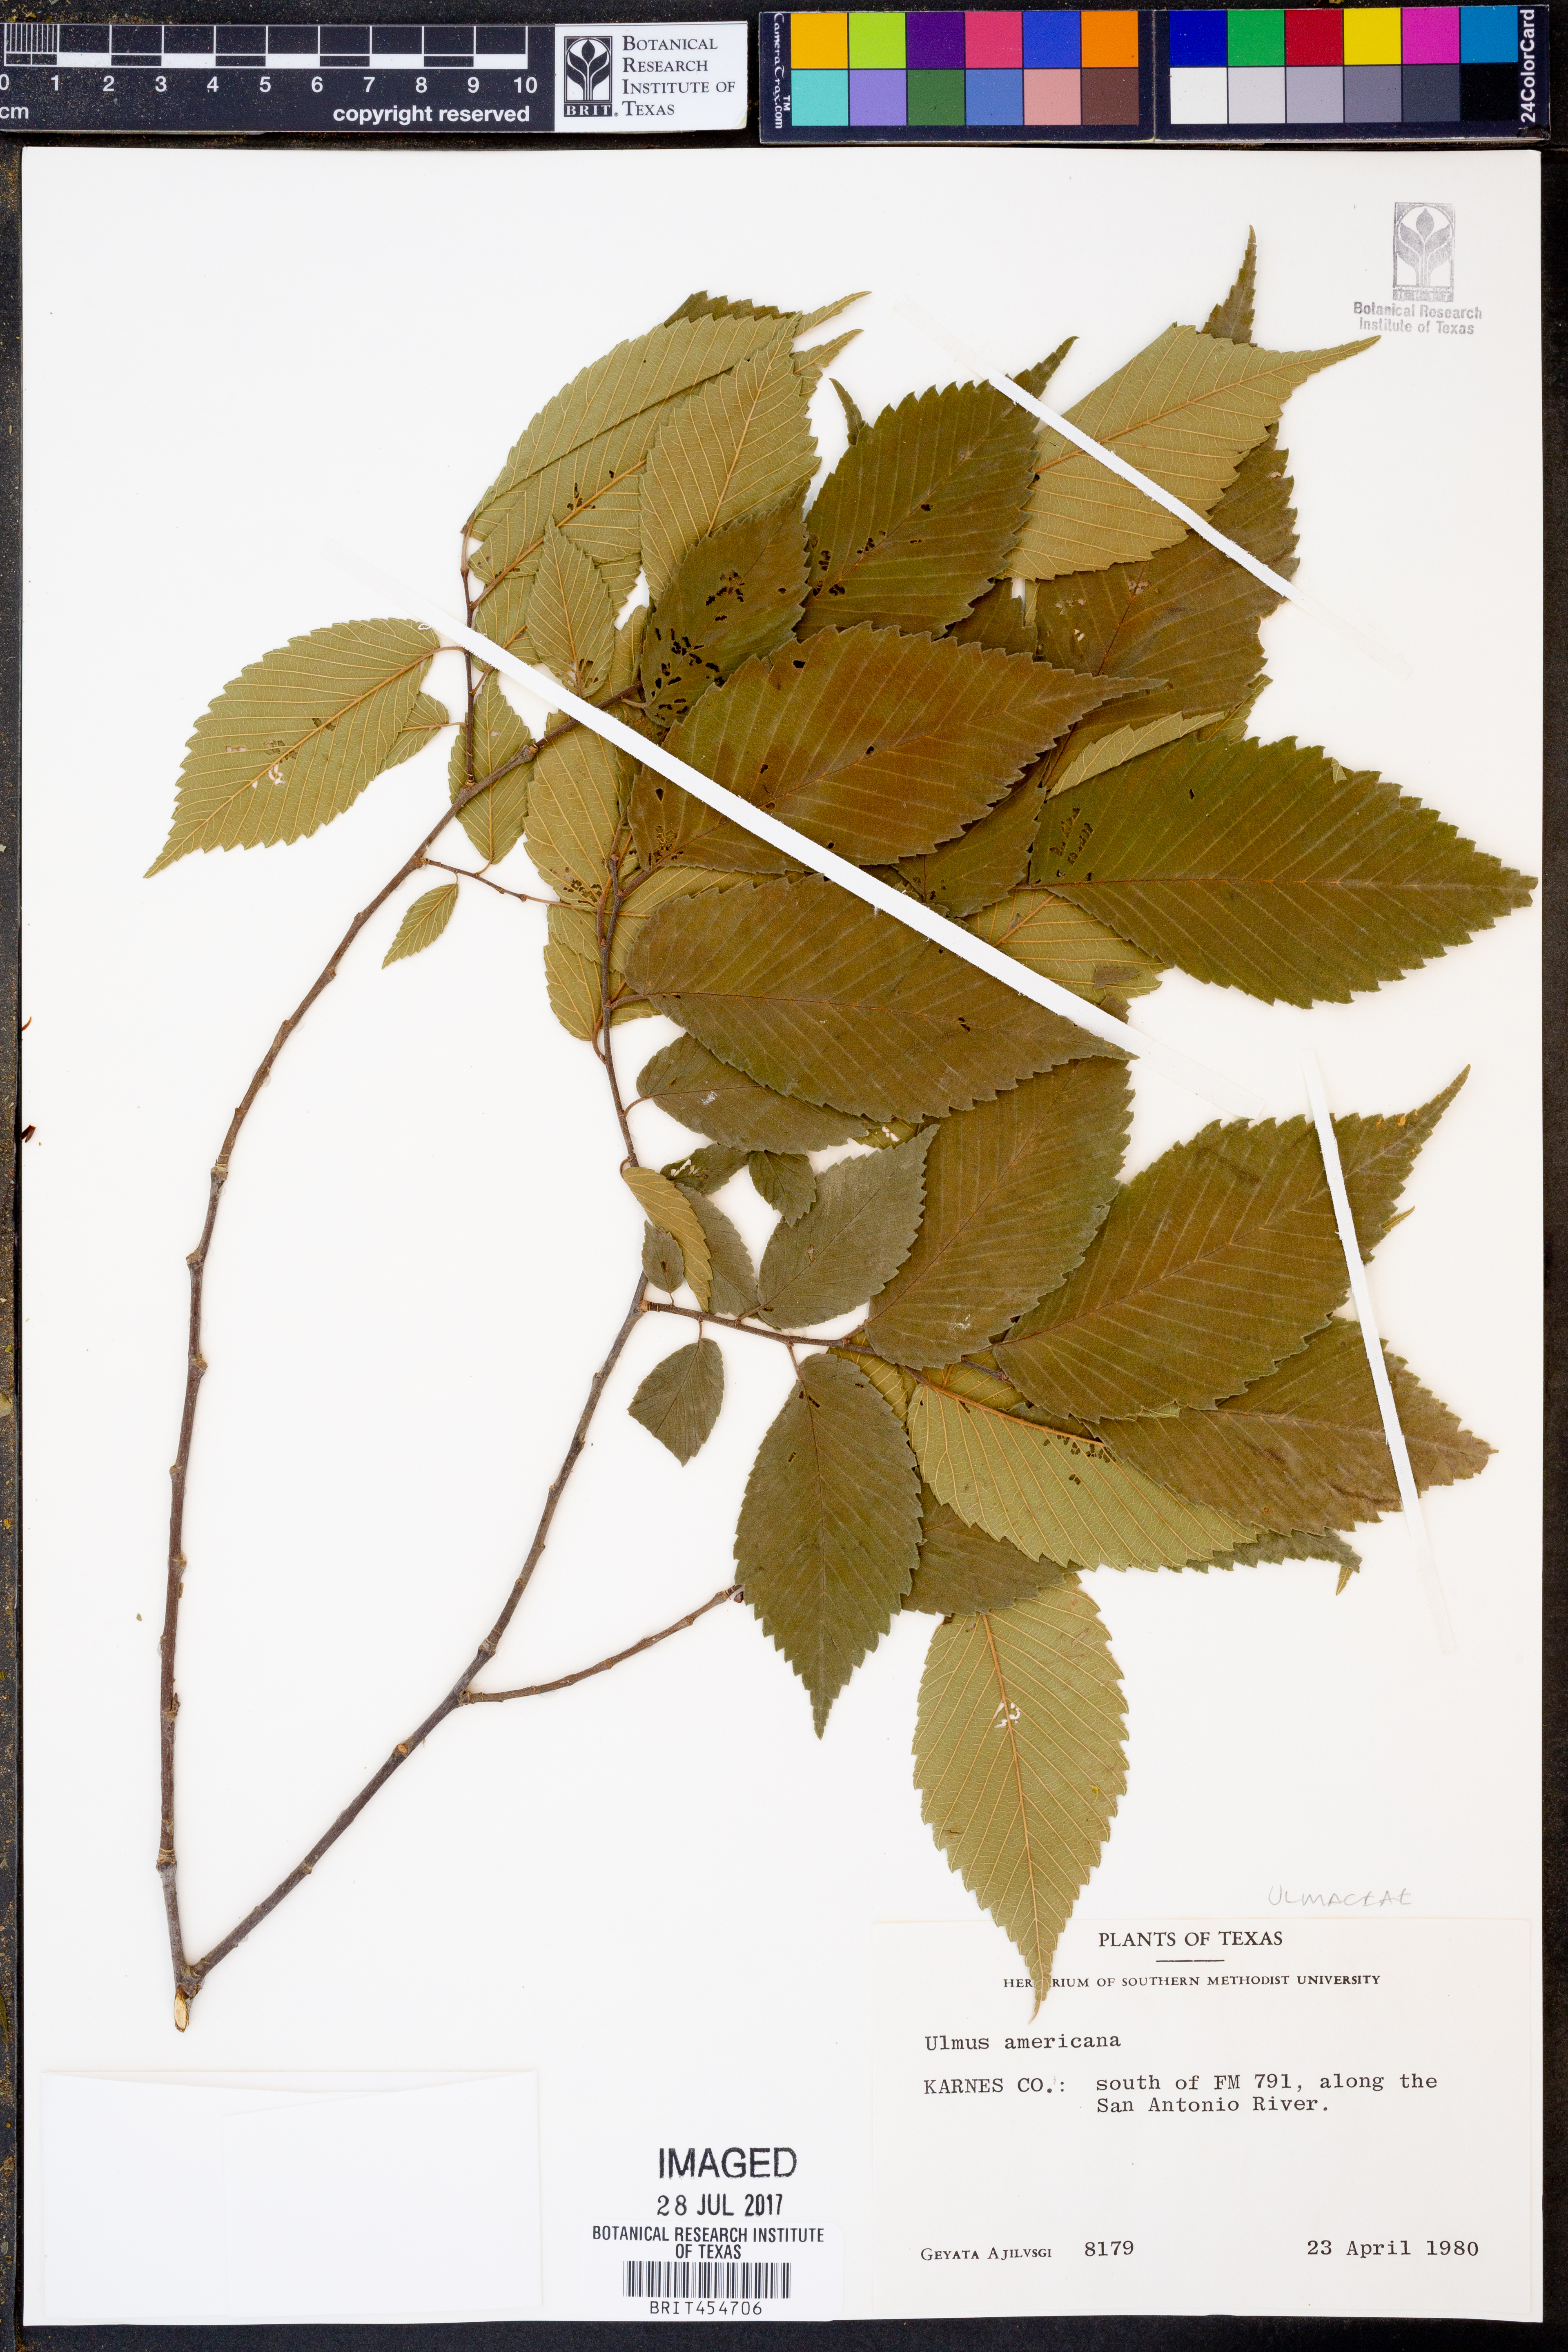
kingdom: Plantae
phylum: Tracheophyta
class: Magnoliopsida
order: Rosales
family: Ulmaceae
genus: Ulmus
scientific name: Ulmus americana
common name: American elm
